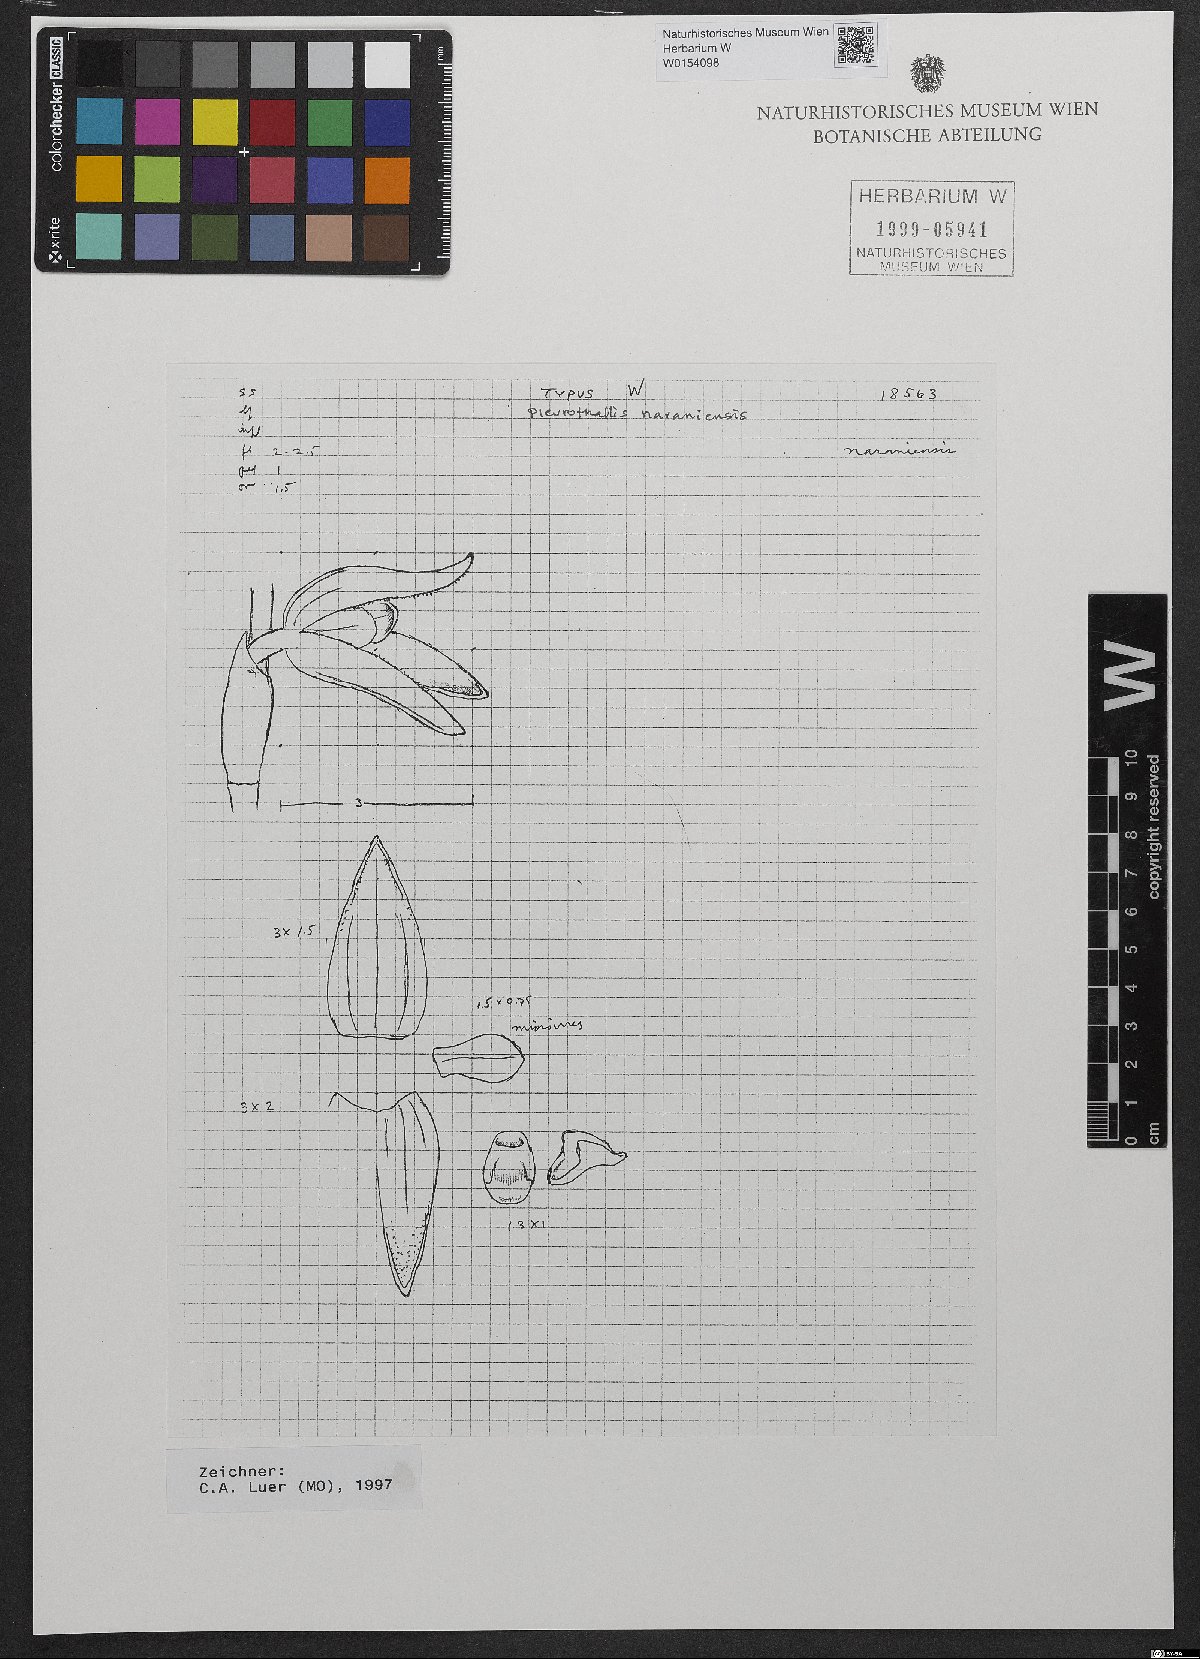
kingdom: Plantae
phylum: Tracheophyta
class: Liliopsida
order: Asparagales
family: Orchidaceae
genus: Stelis
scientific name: Stelis pulchella
